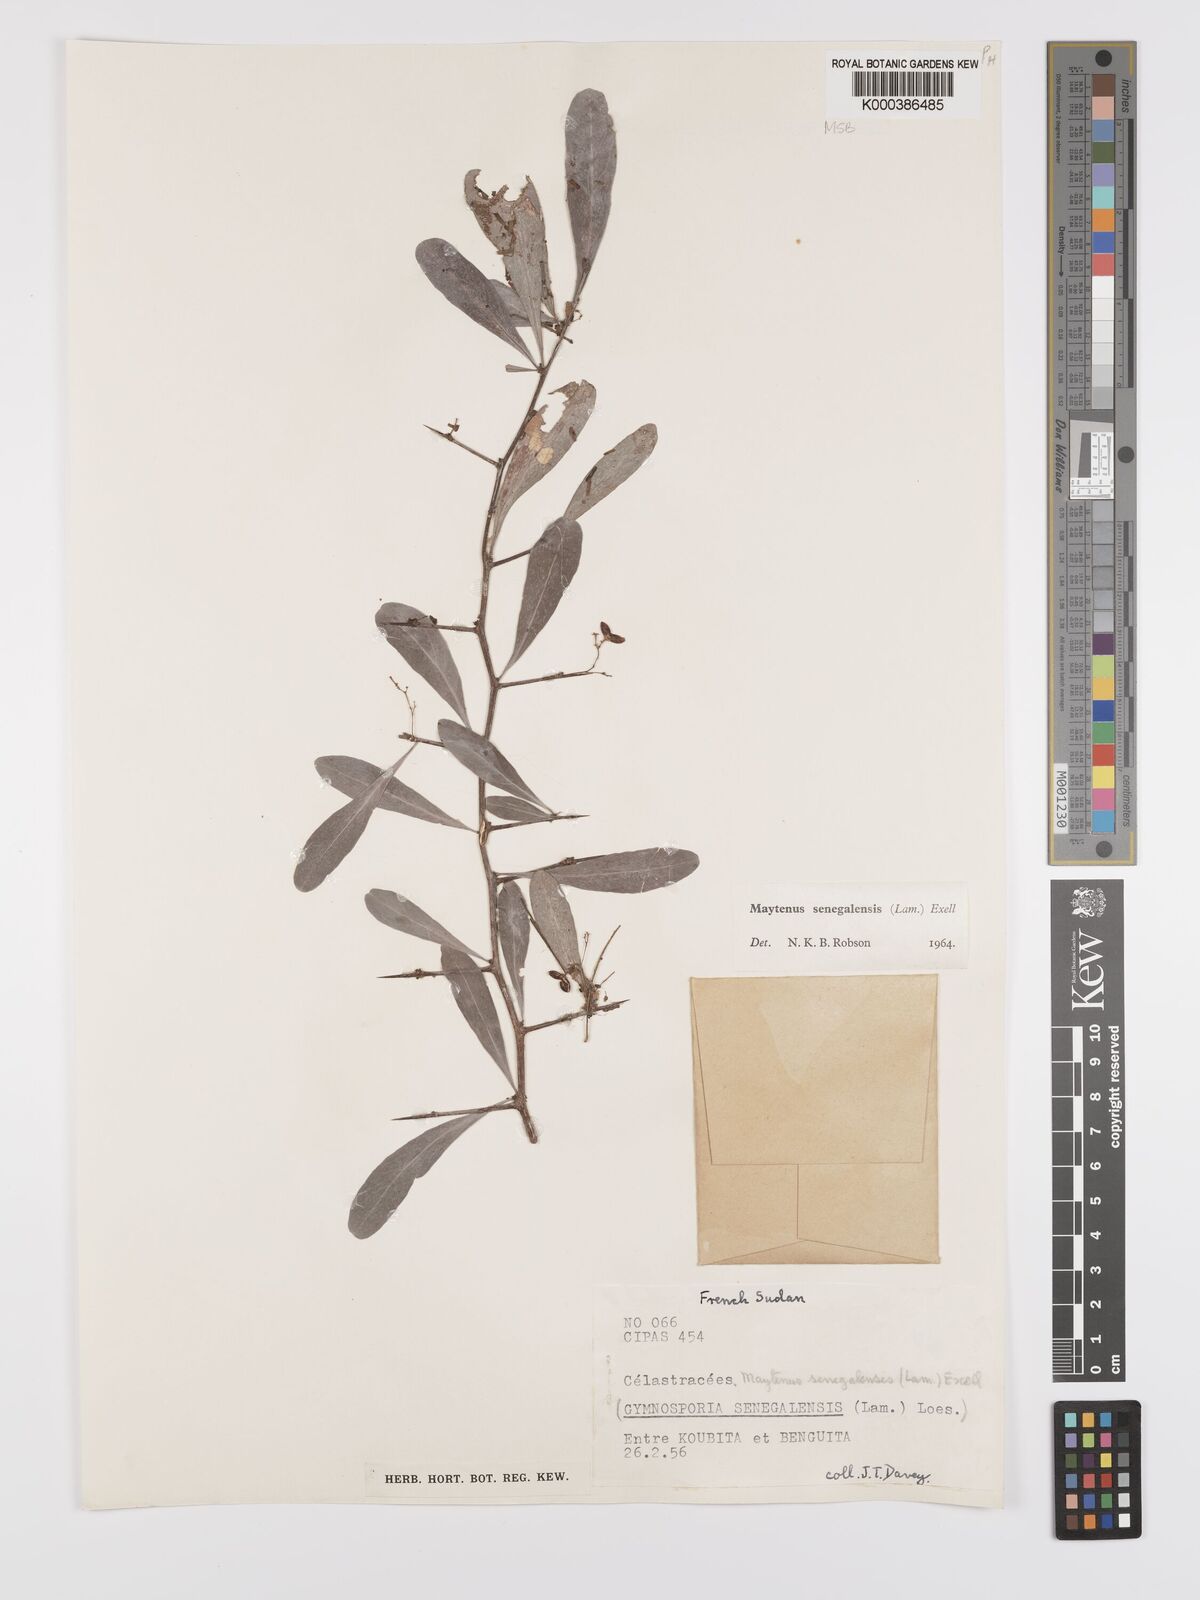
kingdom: Plantae
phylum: Tracheophyta
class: Magnoliopsida
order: Celastrales
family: Celastraceae
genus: Gymnosporia
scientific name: Gymnosporia senegalensis
